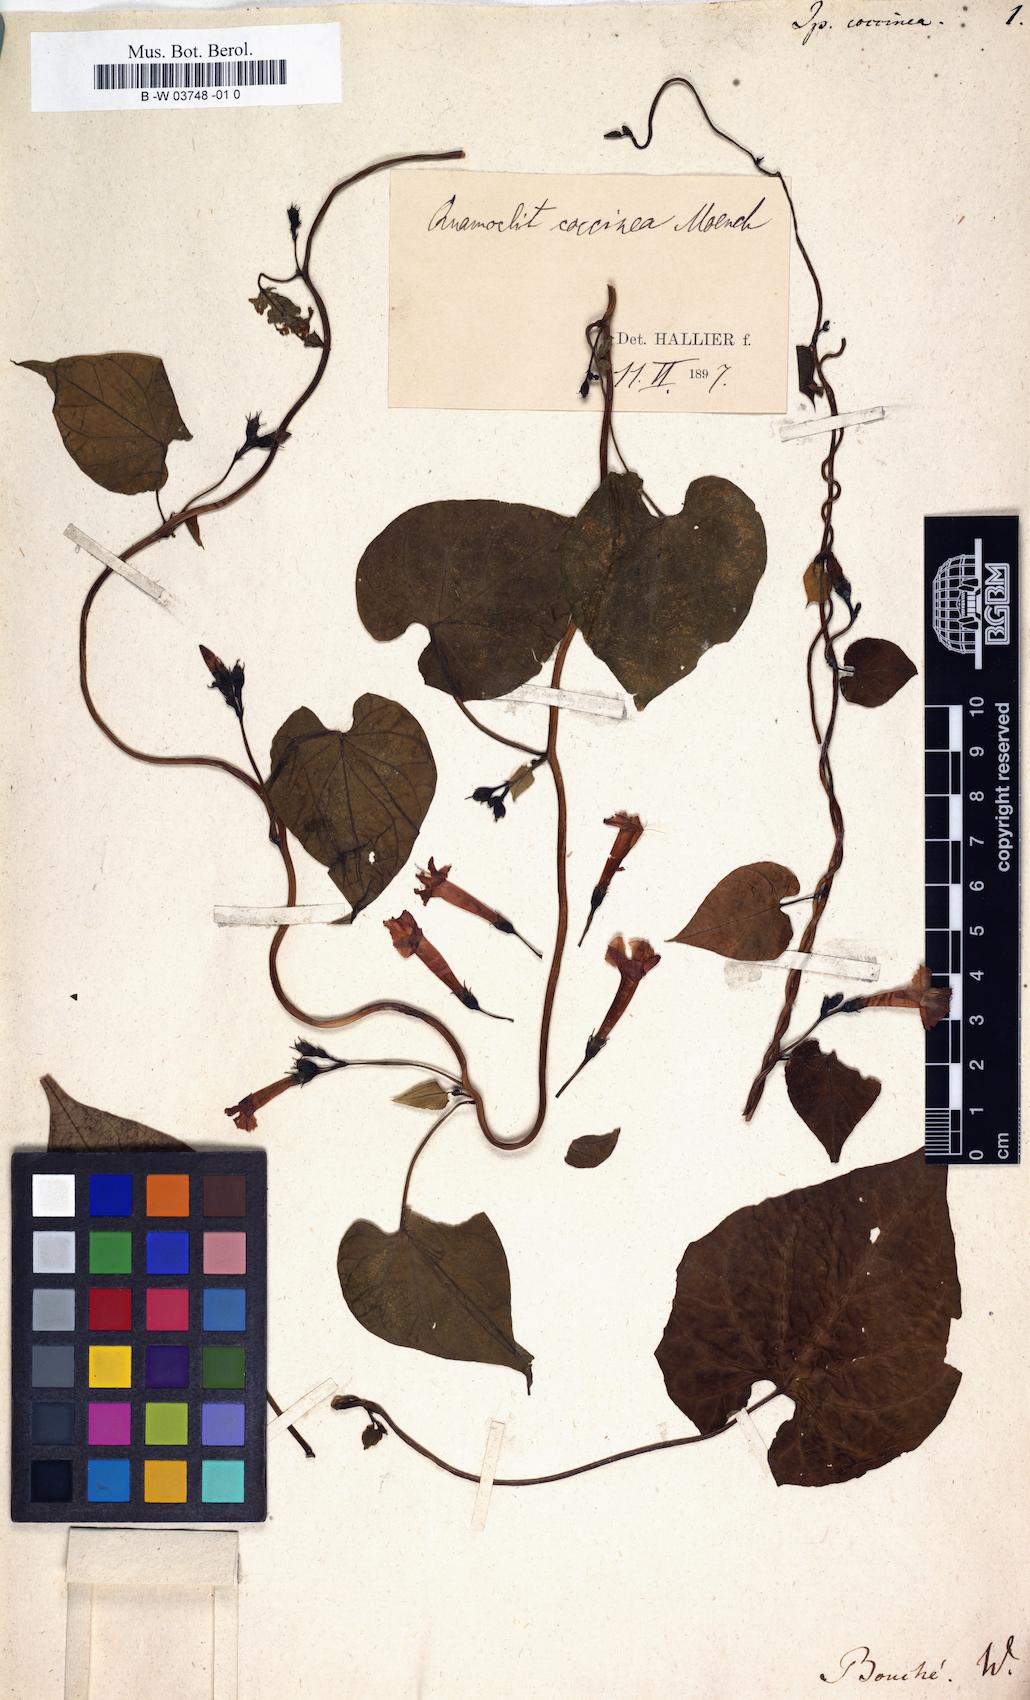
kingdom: Plantae
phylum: Tracheophyta
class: Magnoliopsida
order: Solanales
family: Convolvulaceae
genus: Ipomoea
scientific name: Ipomoea coccinea
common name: Red morning-glory
